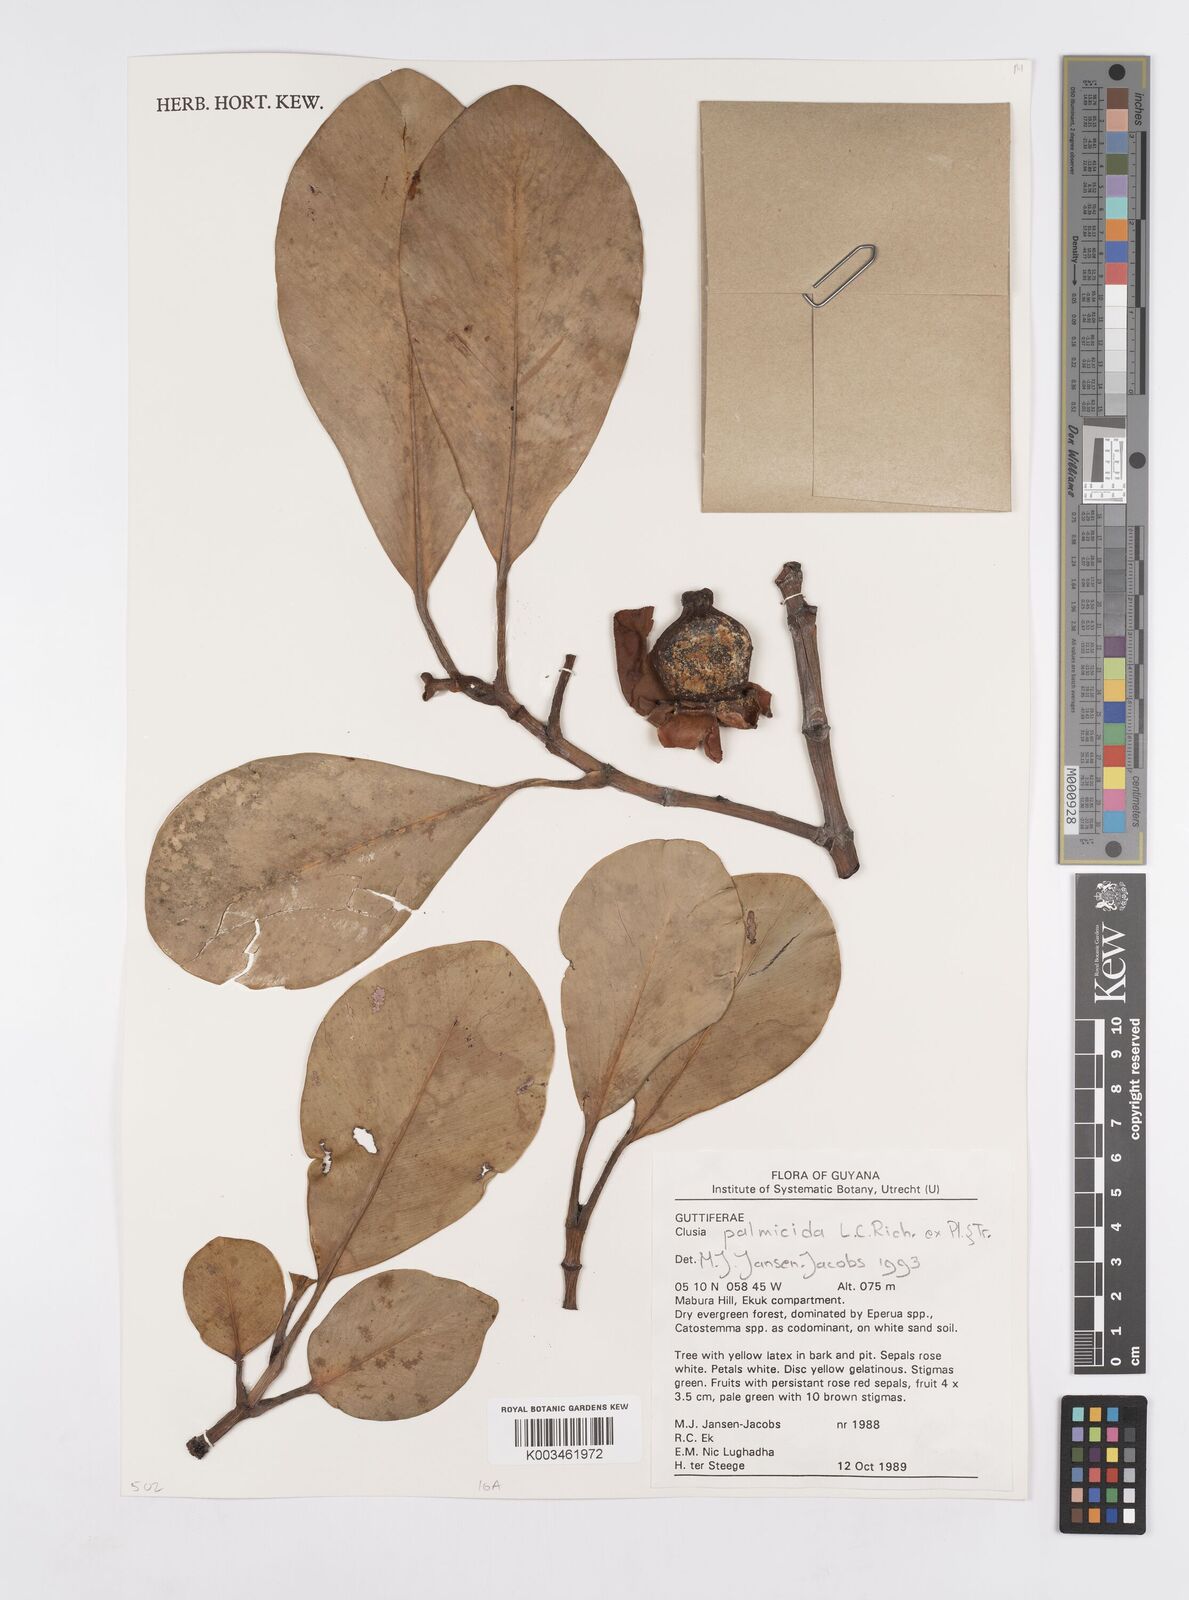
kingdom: Plantae
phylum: Tracheophyta
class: Magnoliopsida
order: Malpighiales
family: Clusiaceae
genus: Clusia
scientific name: Clusia palmicida
